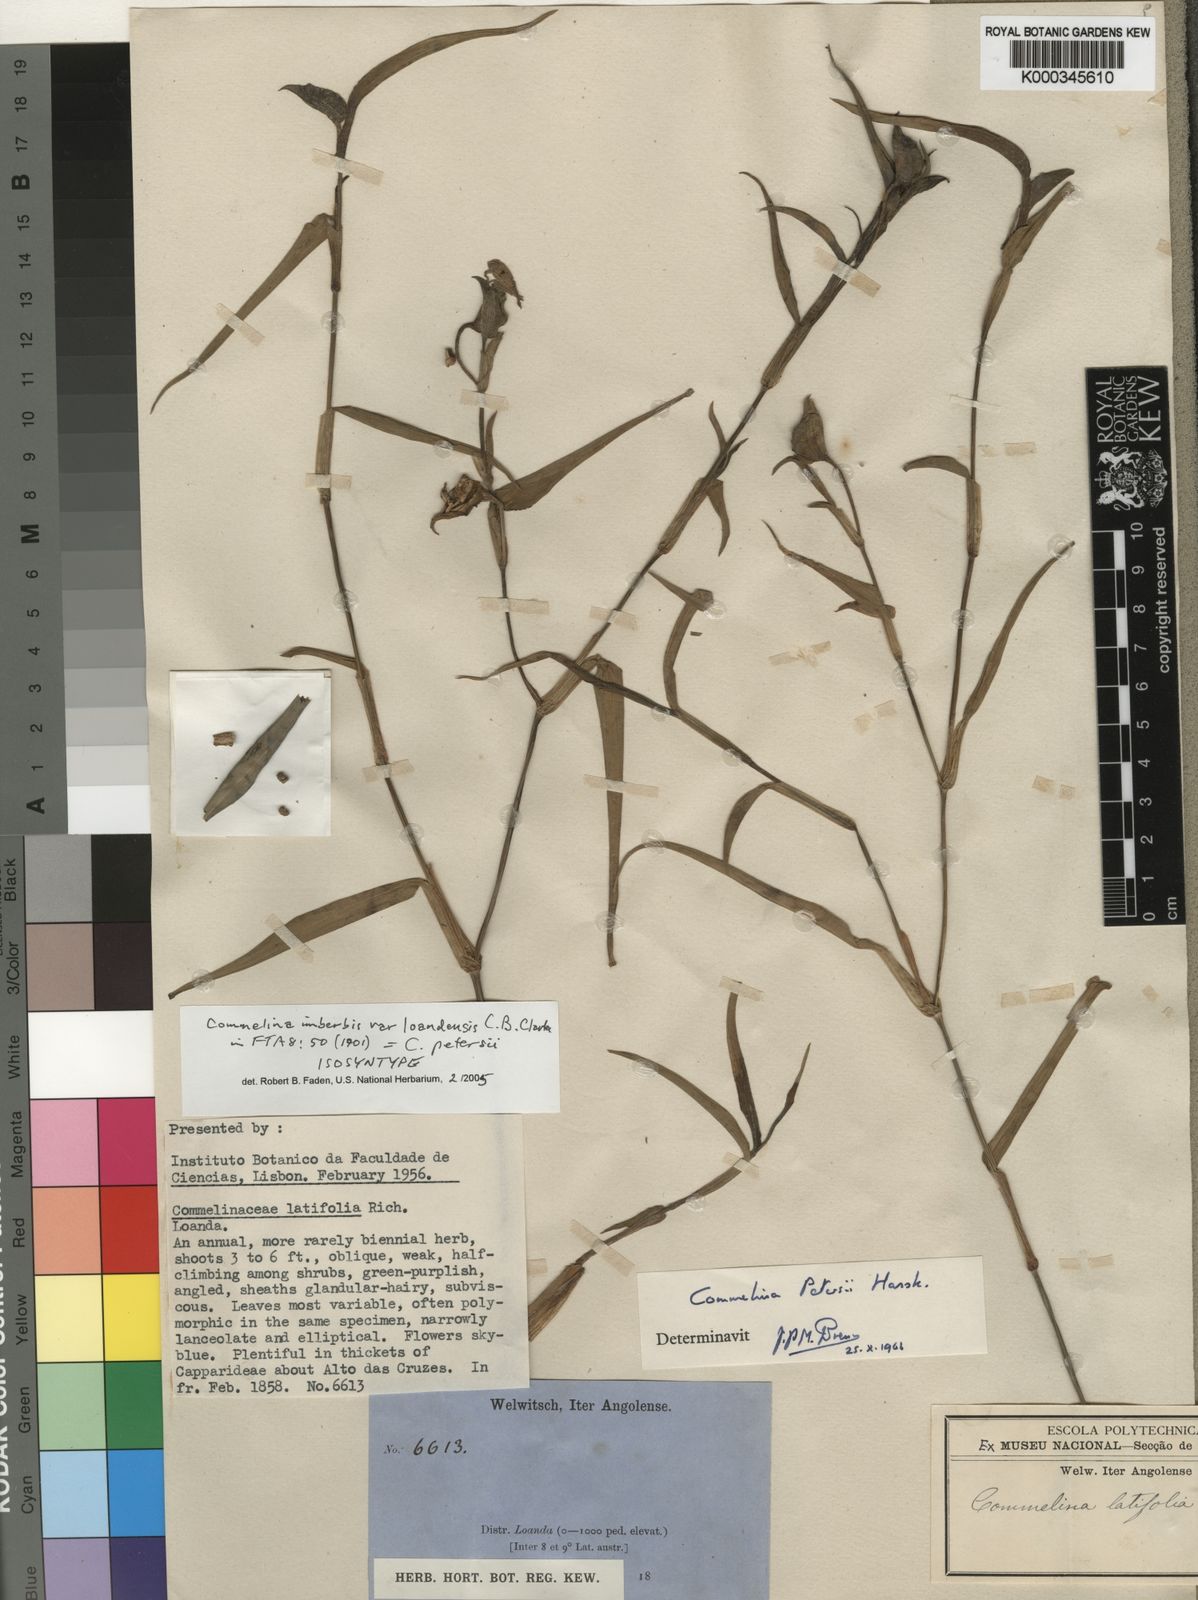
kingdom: Plantae
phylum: Tracheophyta
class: Liliopsida
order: Commelinales
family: Commelinaceae
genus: Commelina
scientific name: Commelina imberbis
